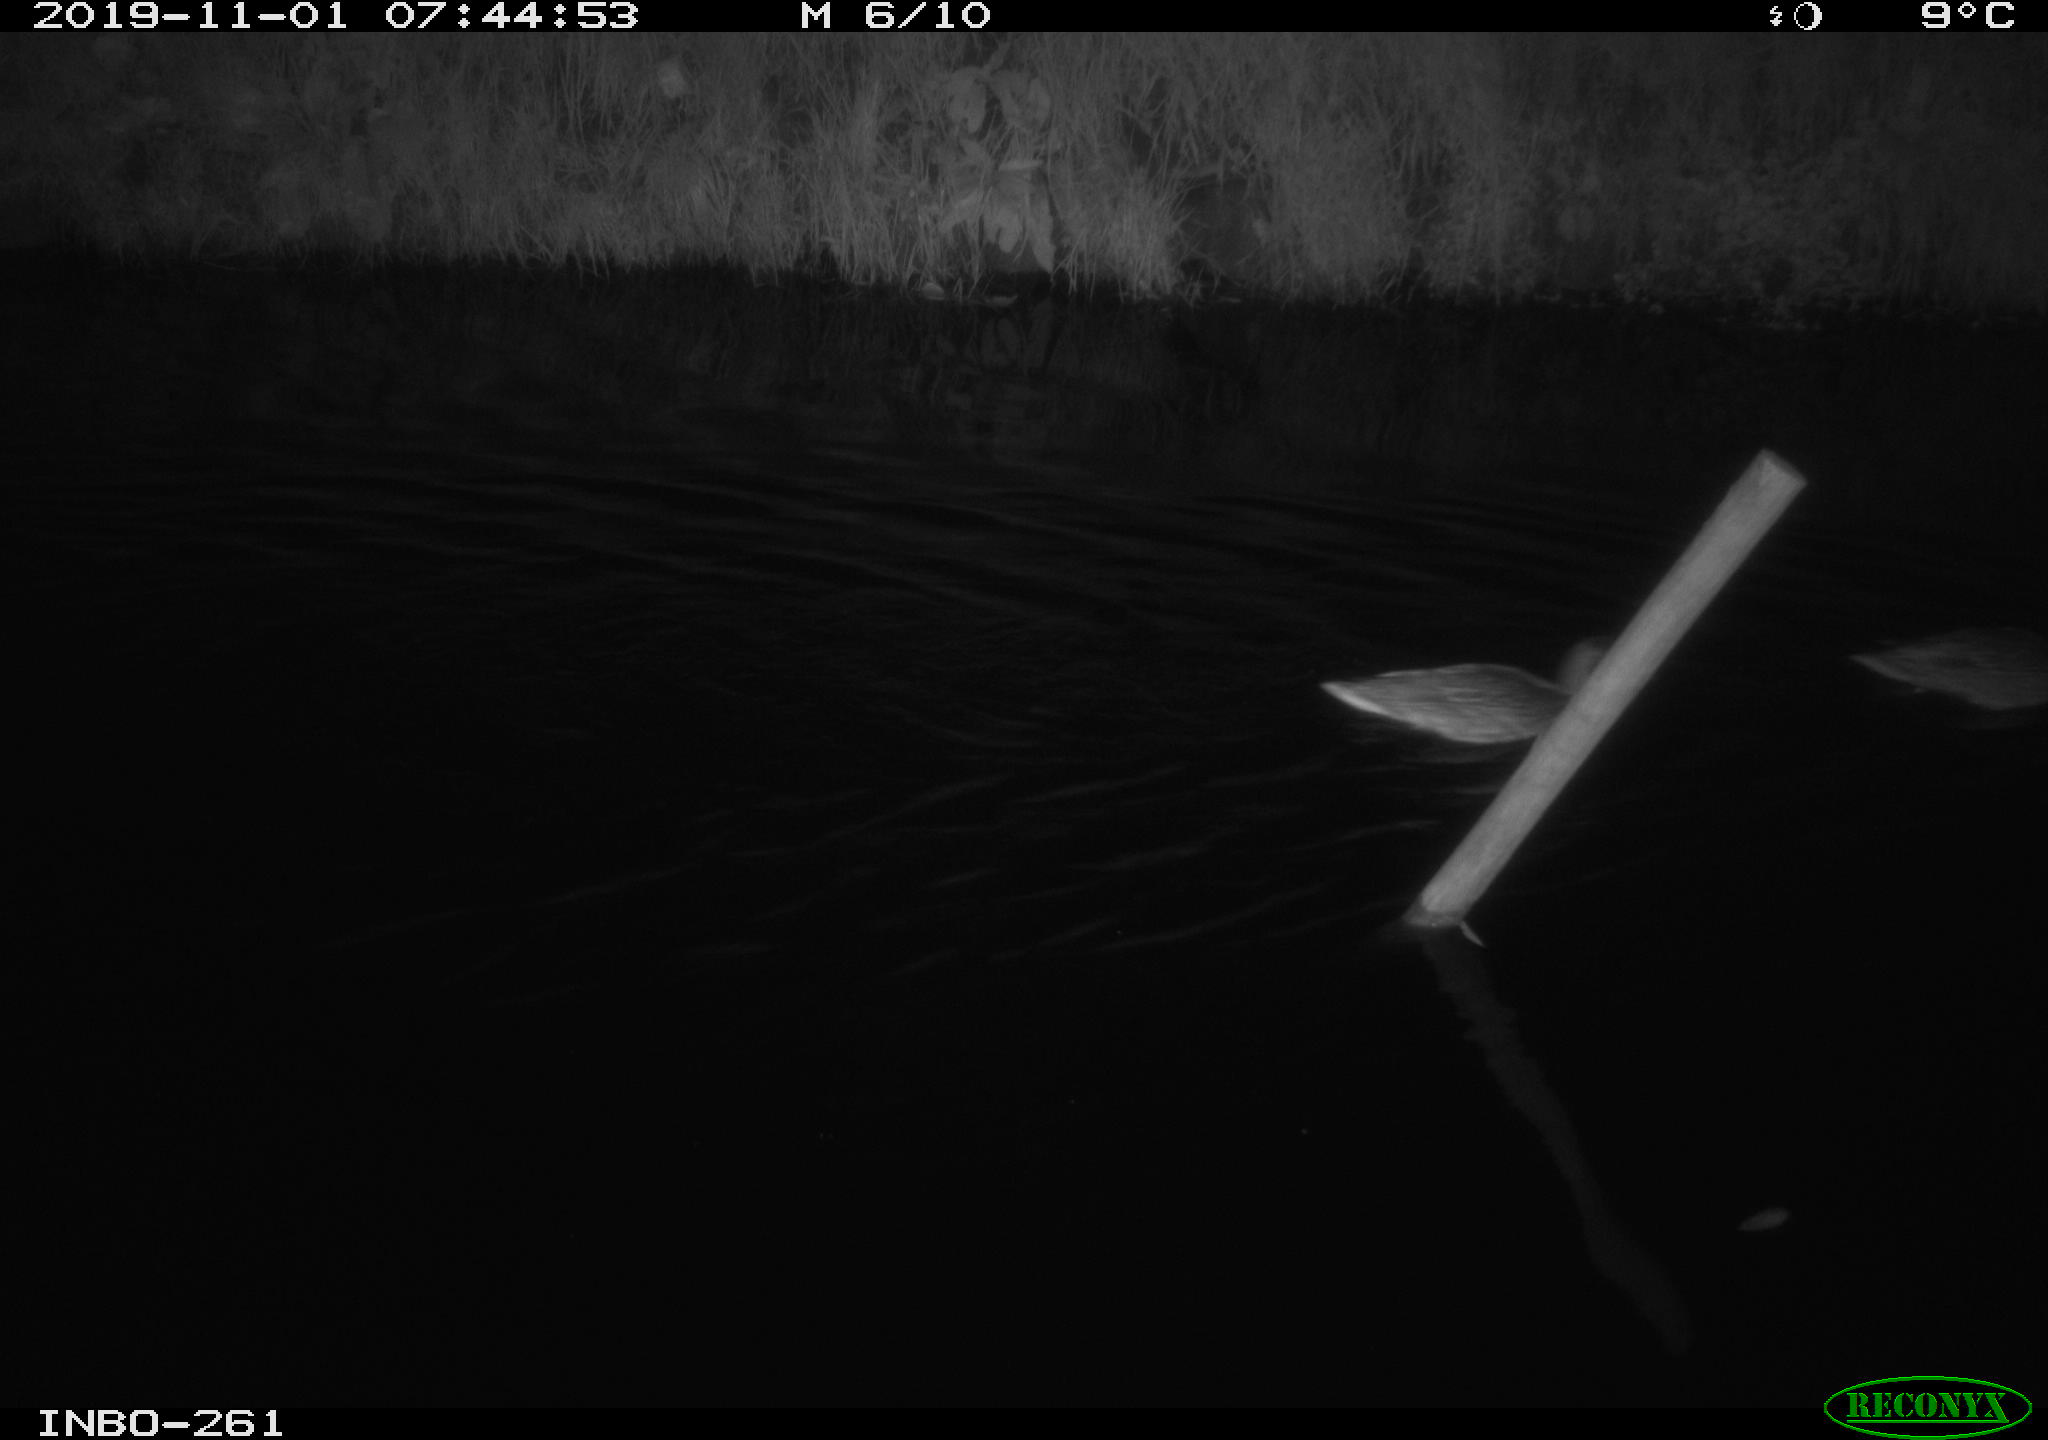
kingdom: Animalia
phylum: Chordata
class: Aves
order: Anseriformes
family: Anatidae
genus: Anas
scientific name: Anas platyrhynchos
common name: Mallard
